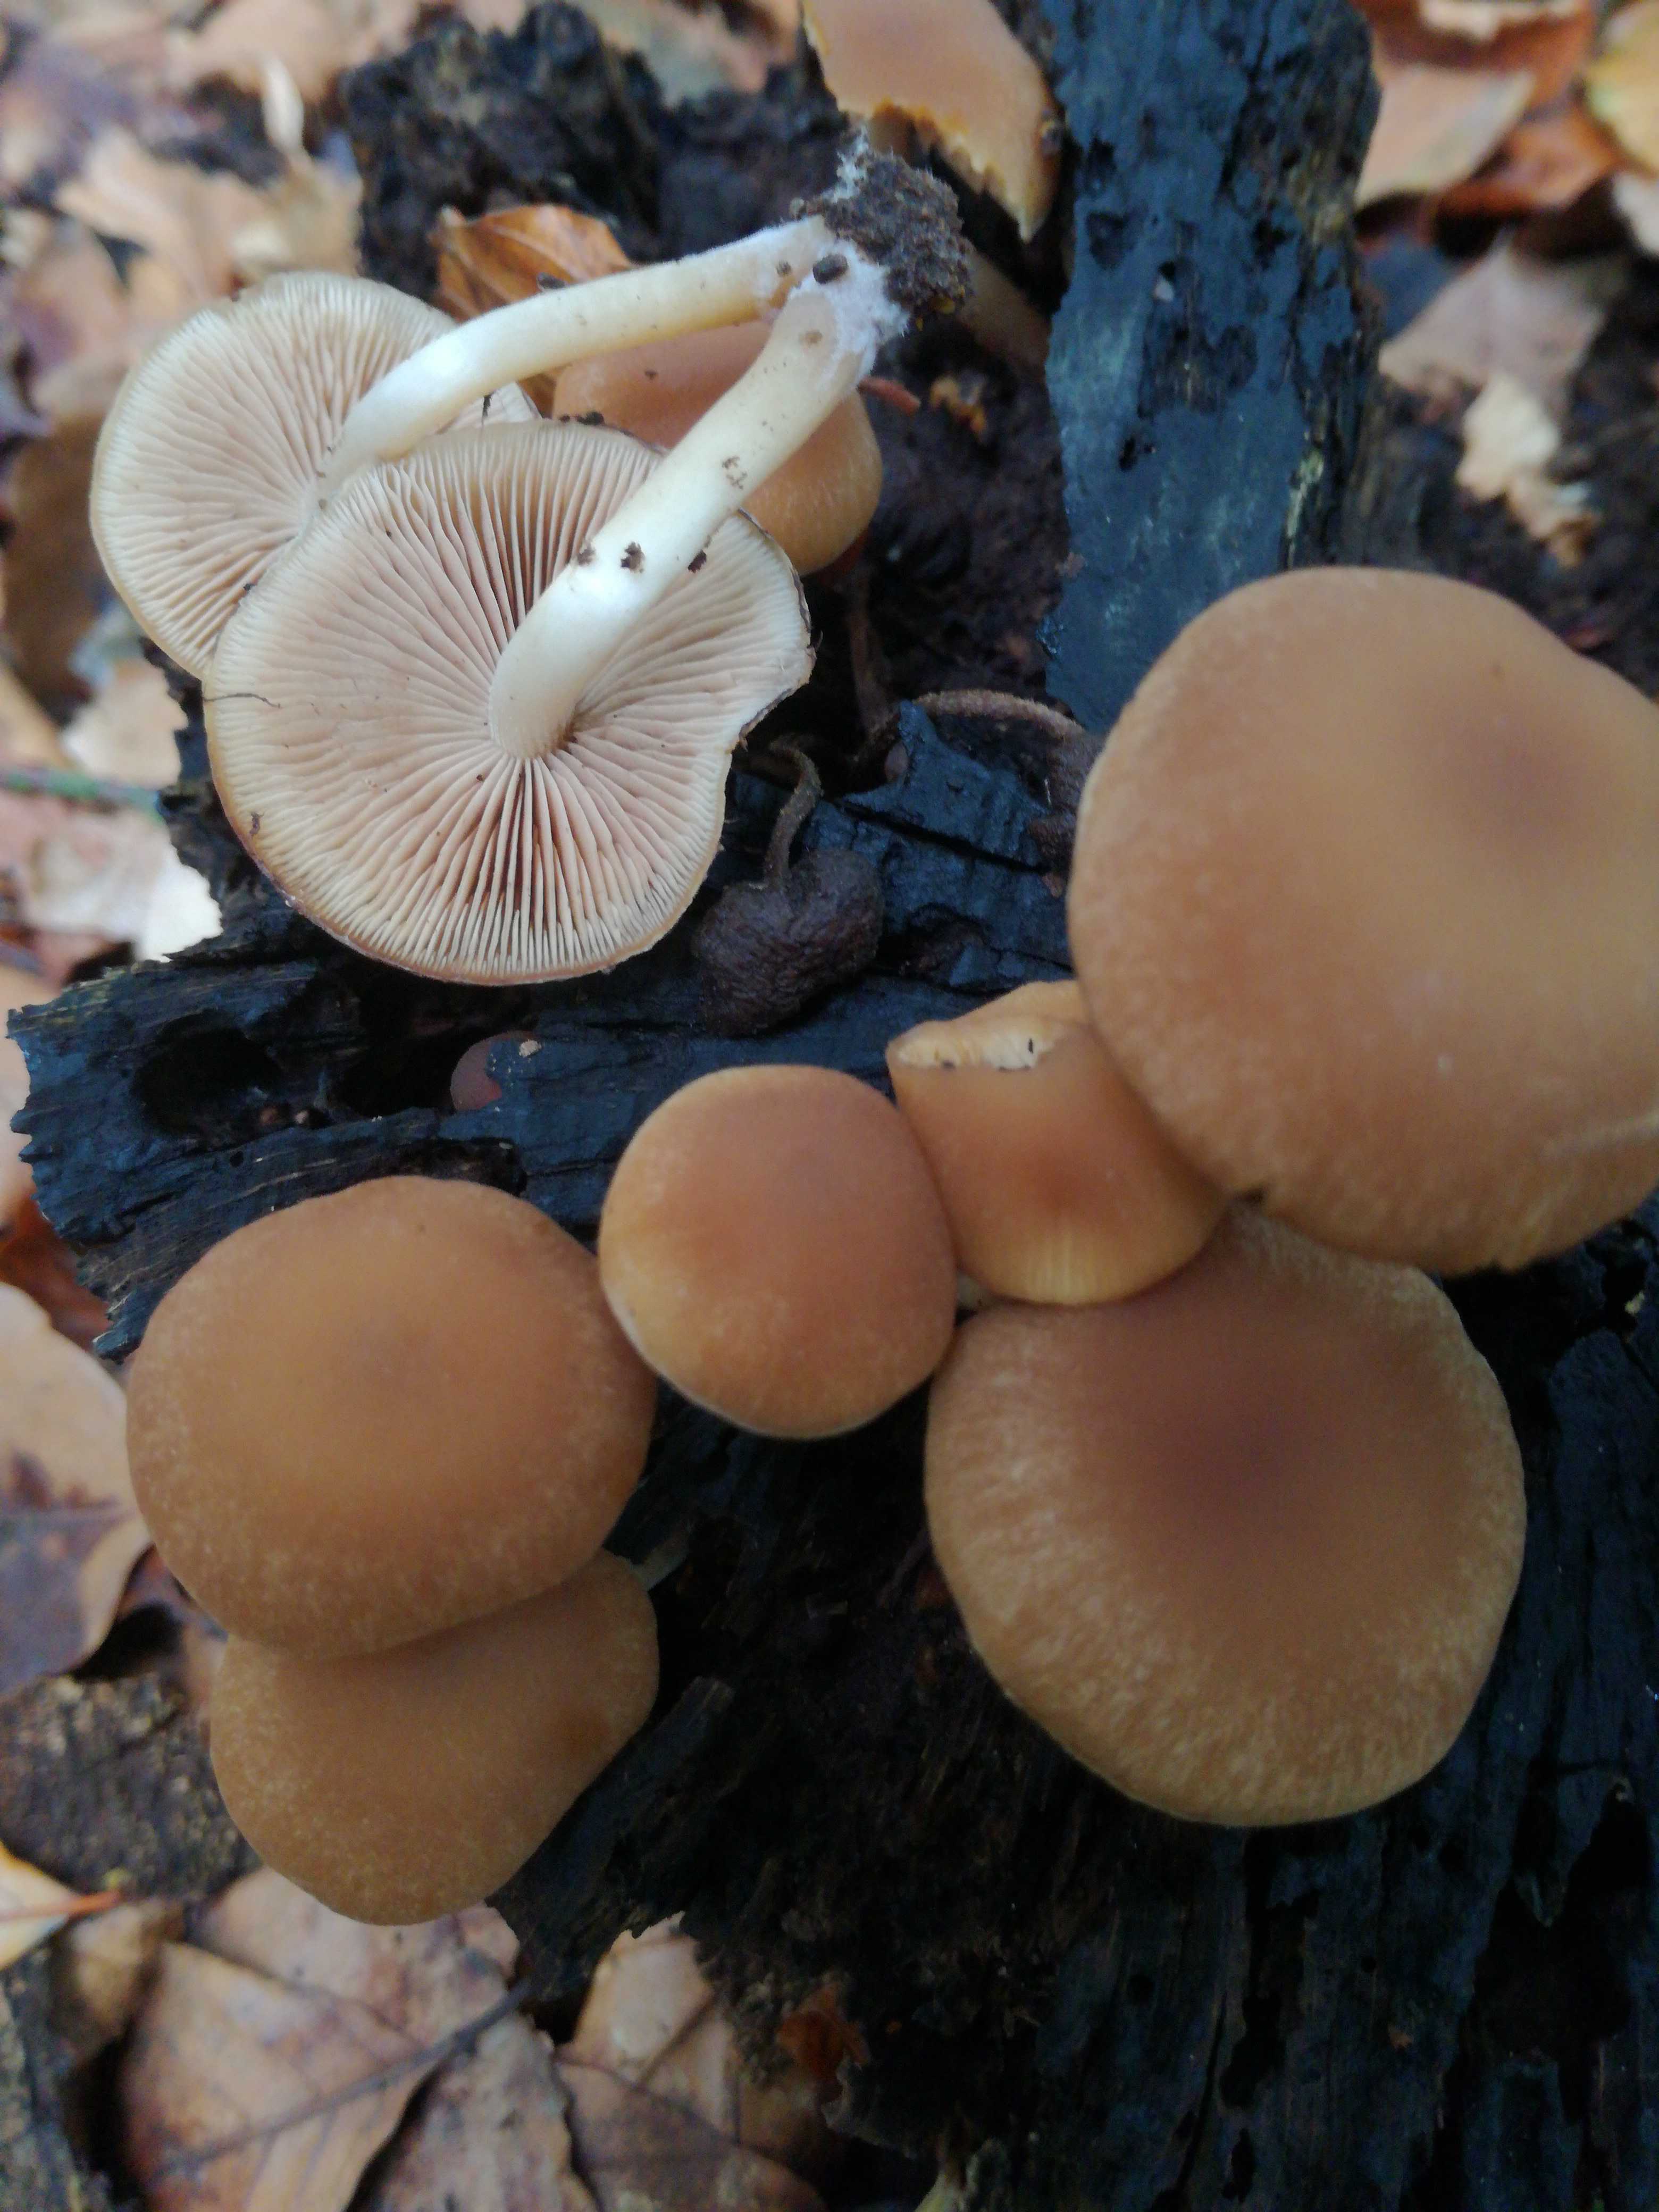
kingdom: Fungi
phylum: Basidiomycota
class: Agaricomycetes
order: Agaricales
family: Psathyrellaceae
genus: Psathyrella
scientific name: Psathyrella piluliformis
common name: lysstokket mørkhat
